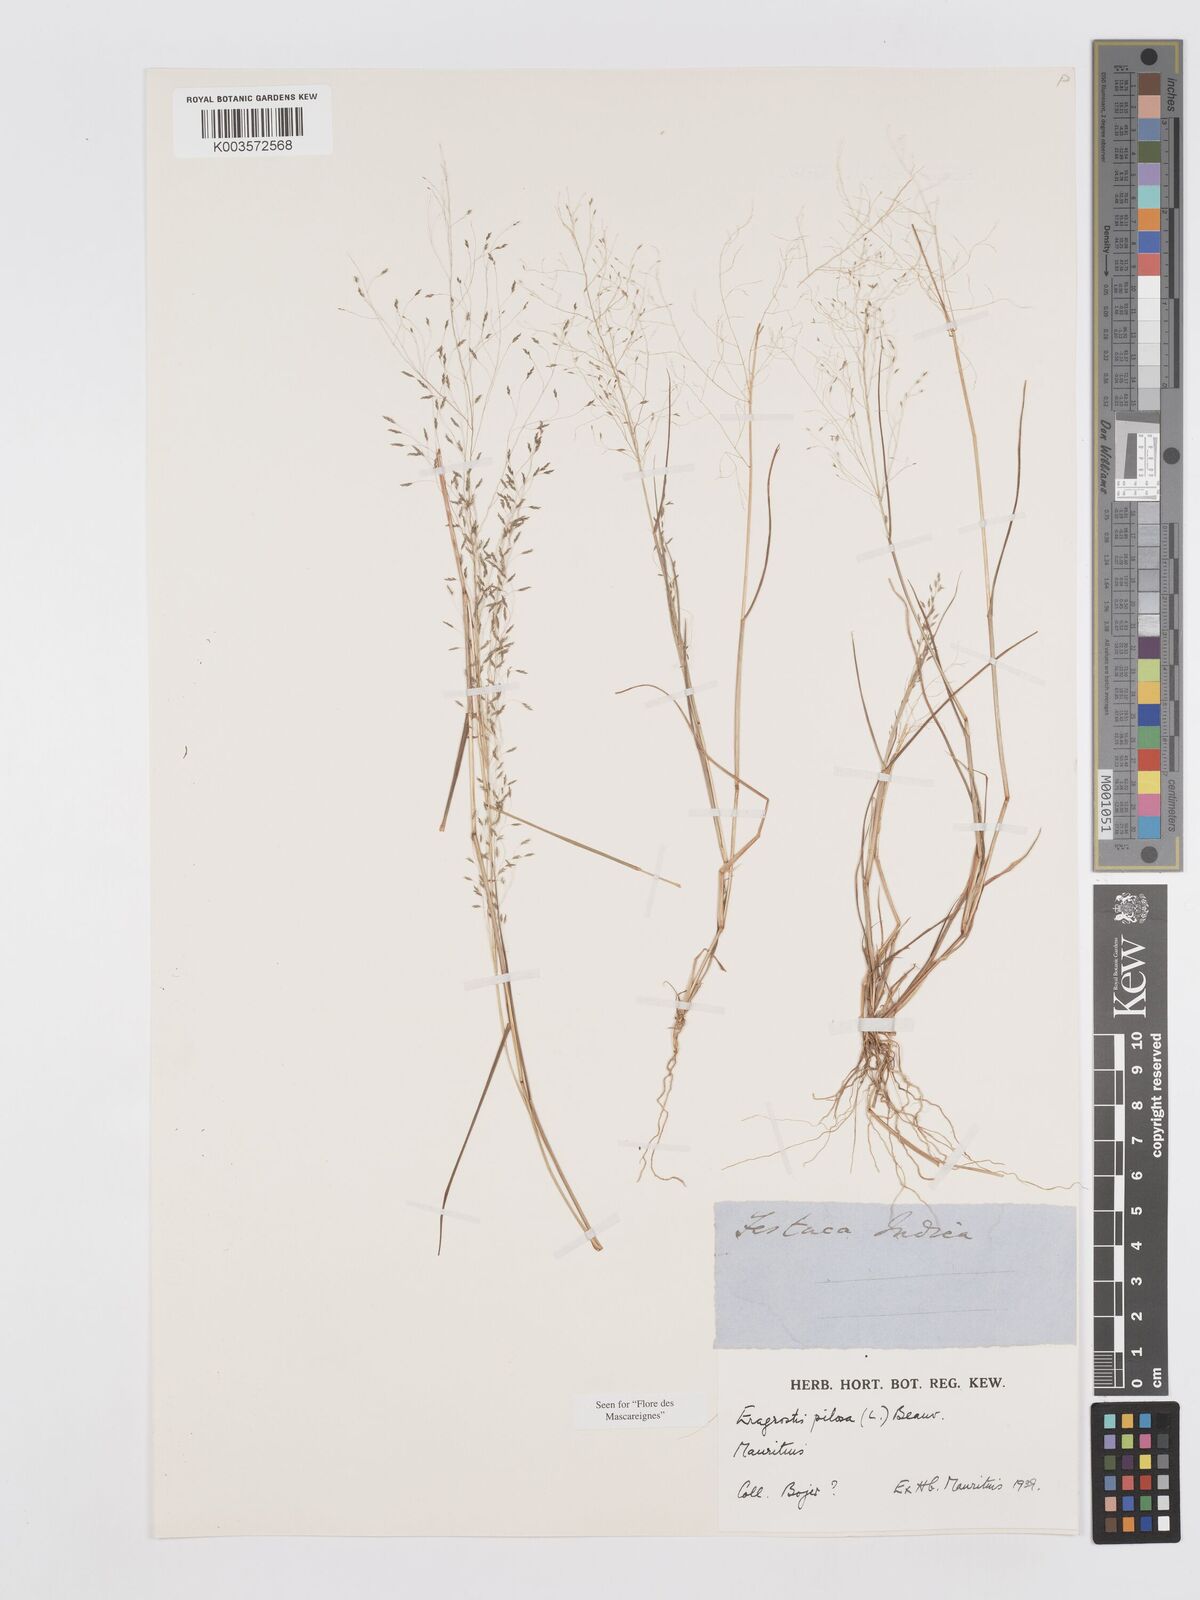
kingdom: Plantae
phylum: Tracheophyta
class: Liliopsida
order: Poales
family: Poaceae
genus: Eragrostis
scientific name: Eragrostis pilosa
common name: Indian lovegrass
